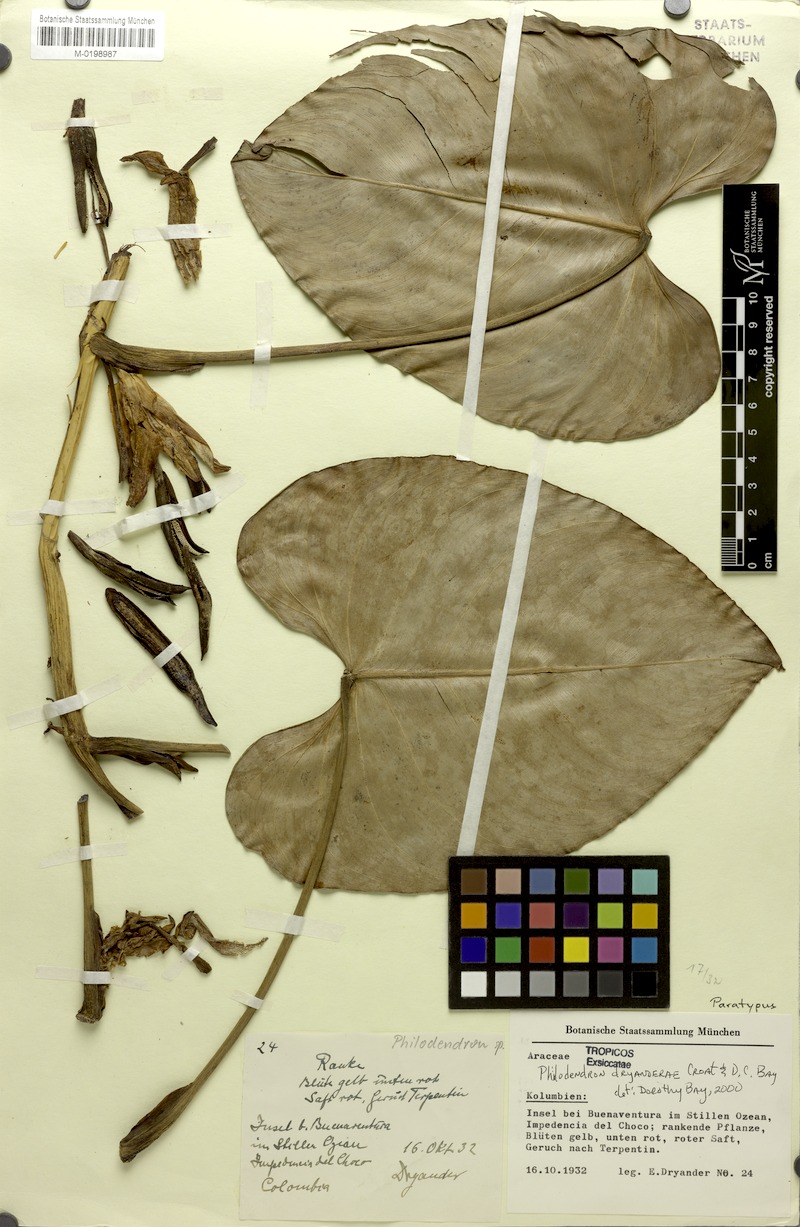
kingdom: Plantae
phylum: Tracheophyta
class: Liliopsida
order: Alismatales
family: Araceae
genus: Philodendron
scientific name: Philodendron dryanderae
